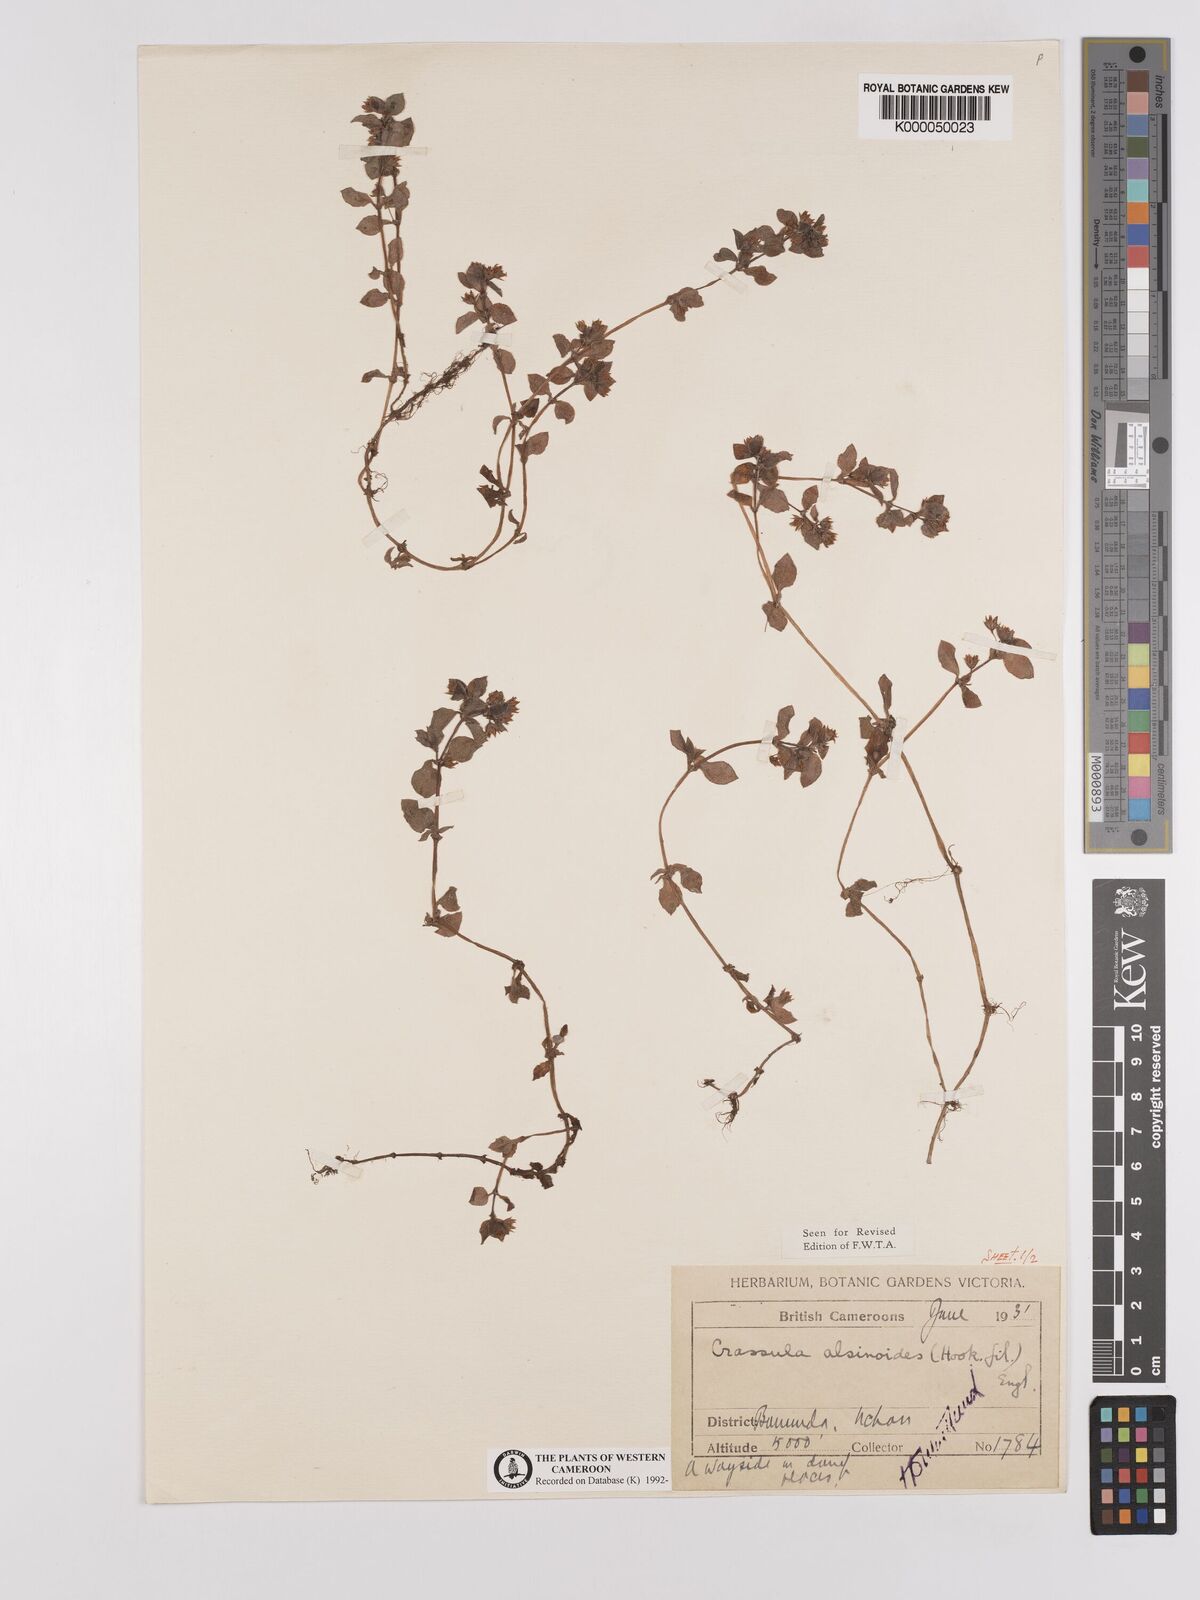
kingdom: Plantae
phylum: Tracheophyta
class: Magnoliopsida
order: Saxifragales
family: Crassulaceae
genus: Crassula
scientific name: Crassula alsinoides
